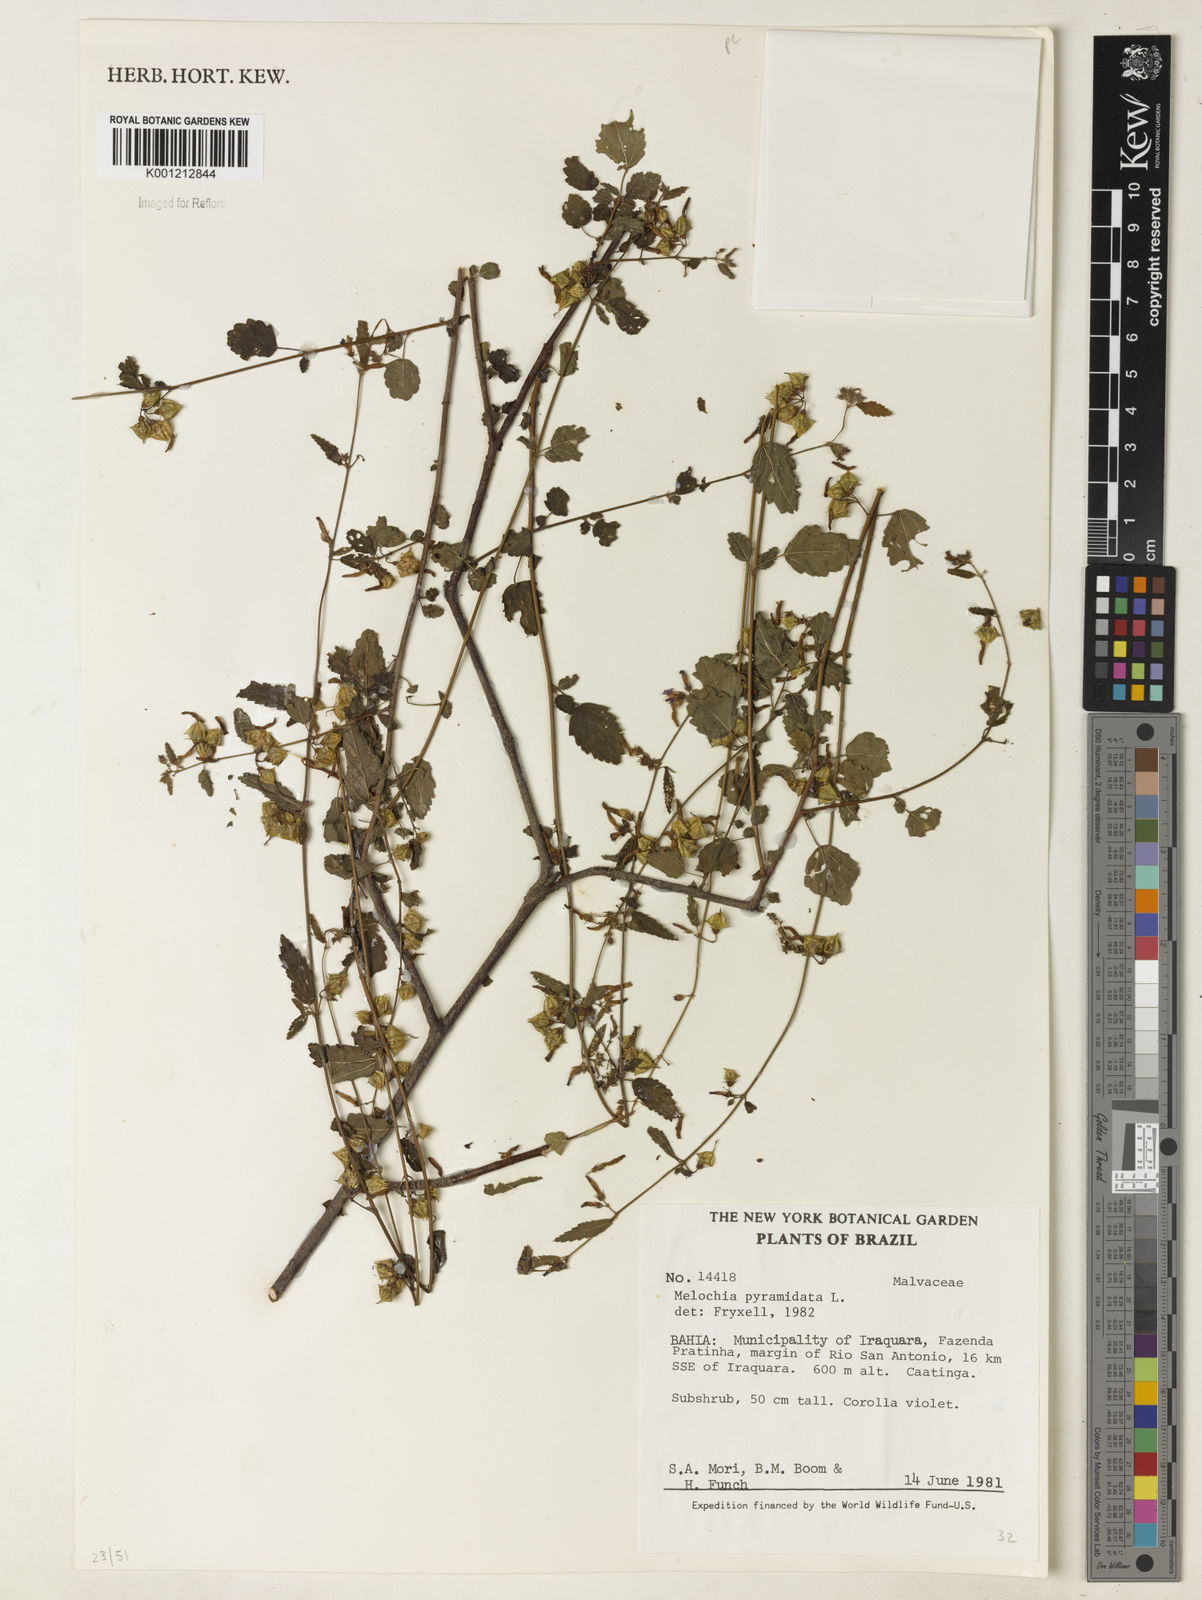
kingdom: Plantae
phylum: Tracheophyta
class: Magnoliopsida
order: Malvales
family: Malvaceae
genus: Melochia
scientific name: Melochia pyramidata
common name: Pyramidflower
